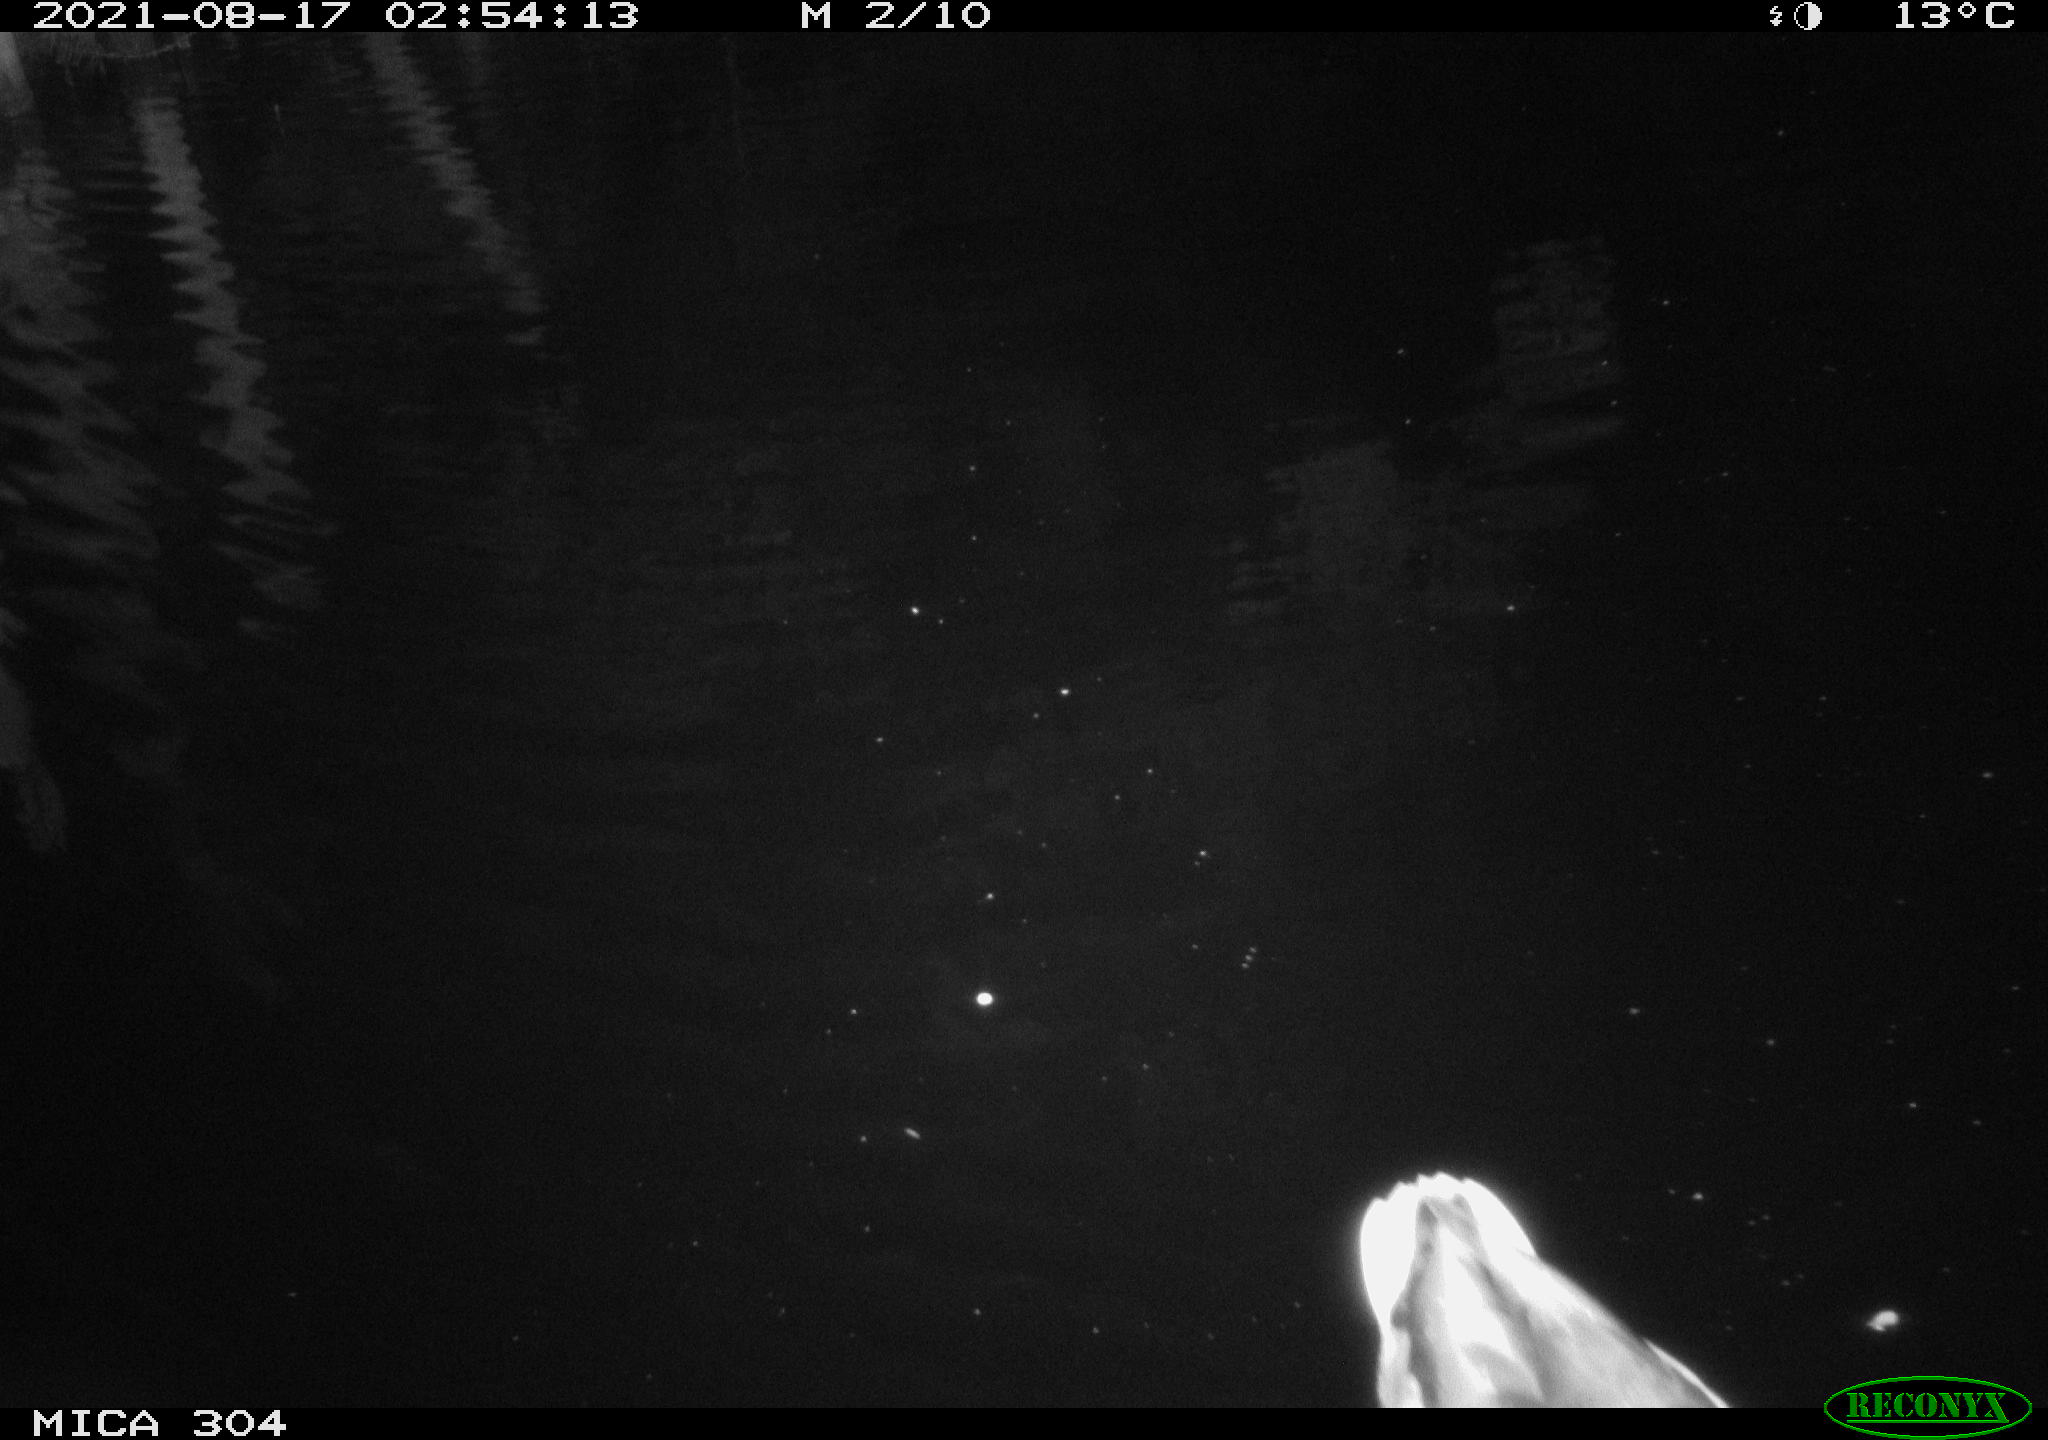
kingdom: Animalia
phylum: Chordata
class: Aves
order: Anseriformes
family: Anatidae
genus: Anas
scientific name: Anas platyrhynchos
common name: Mallard
